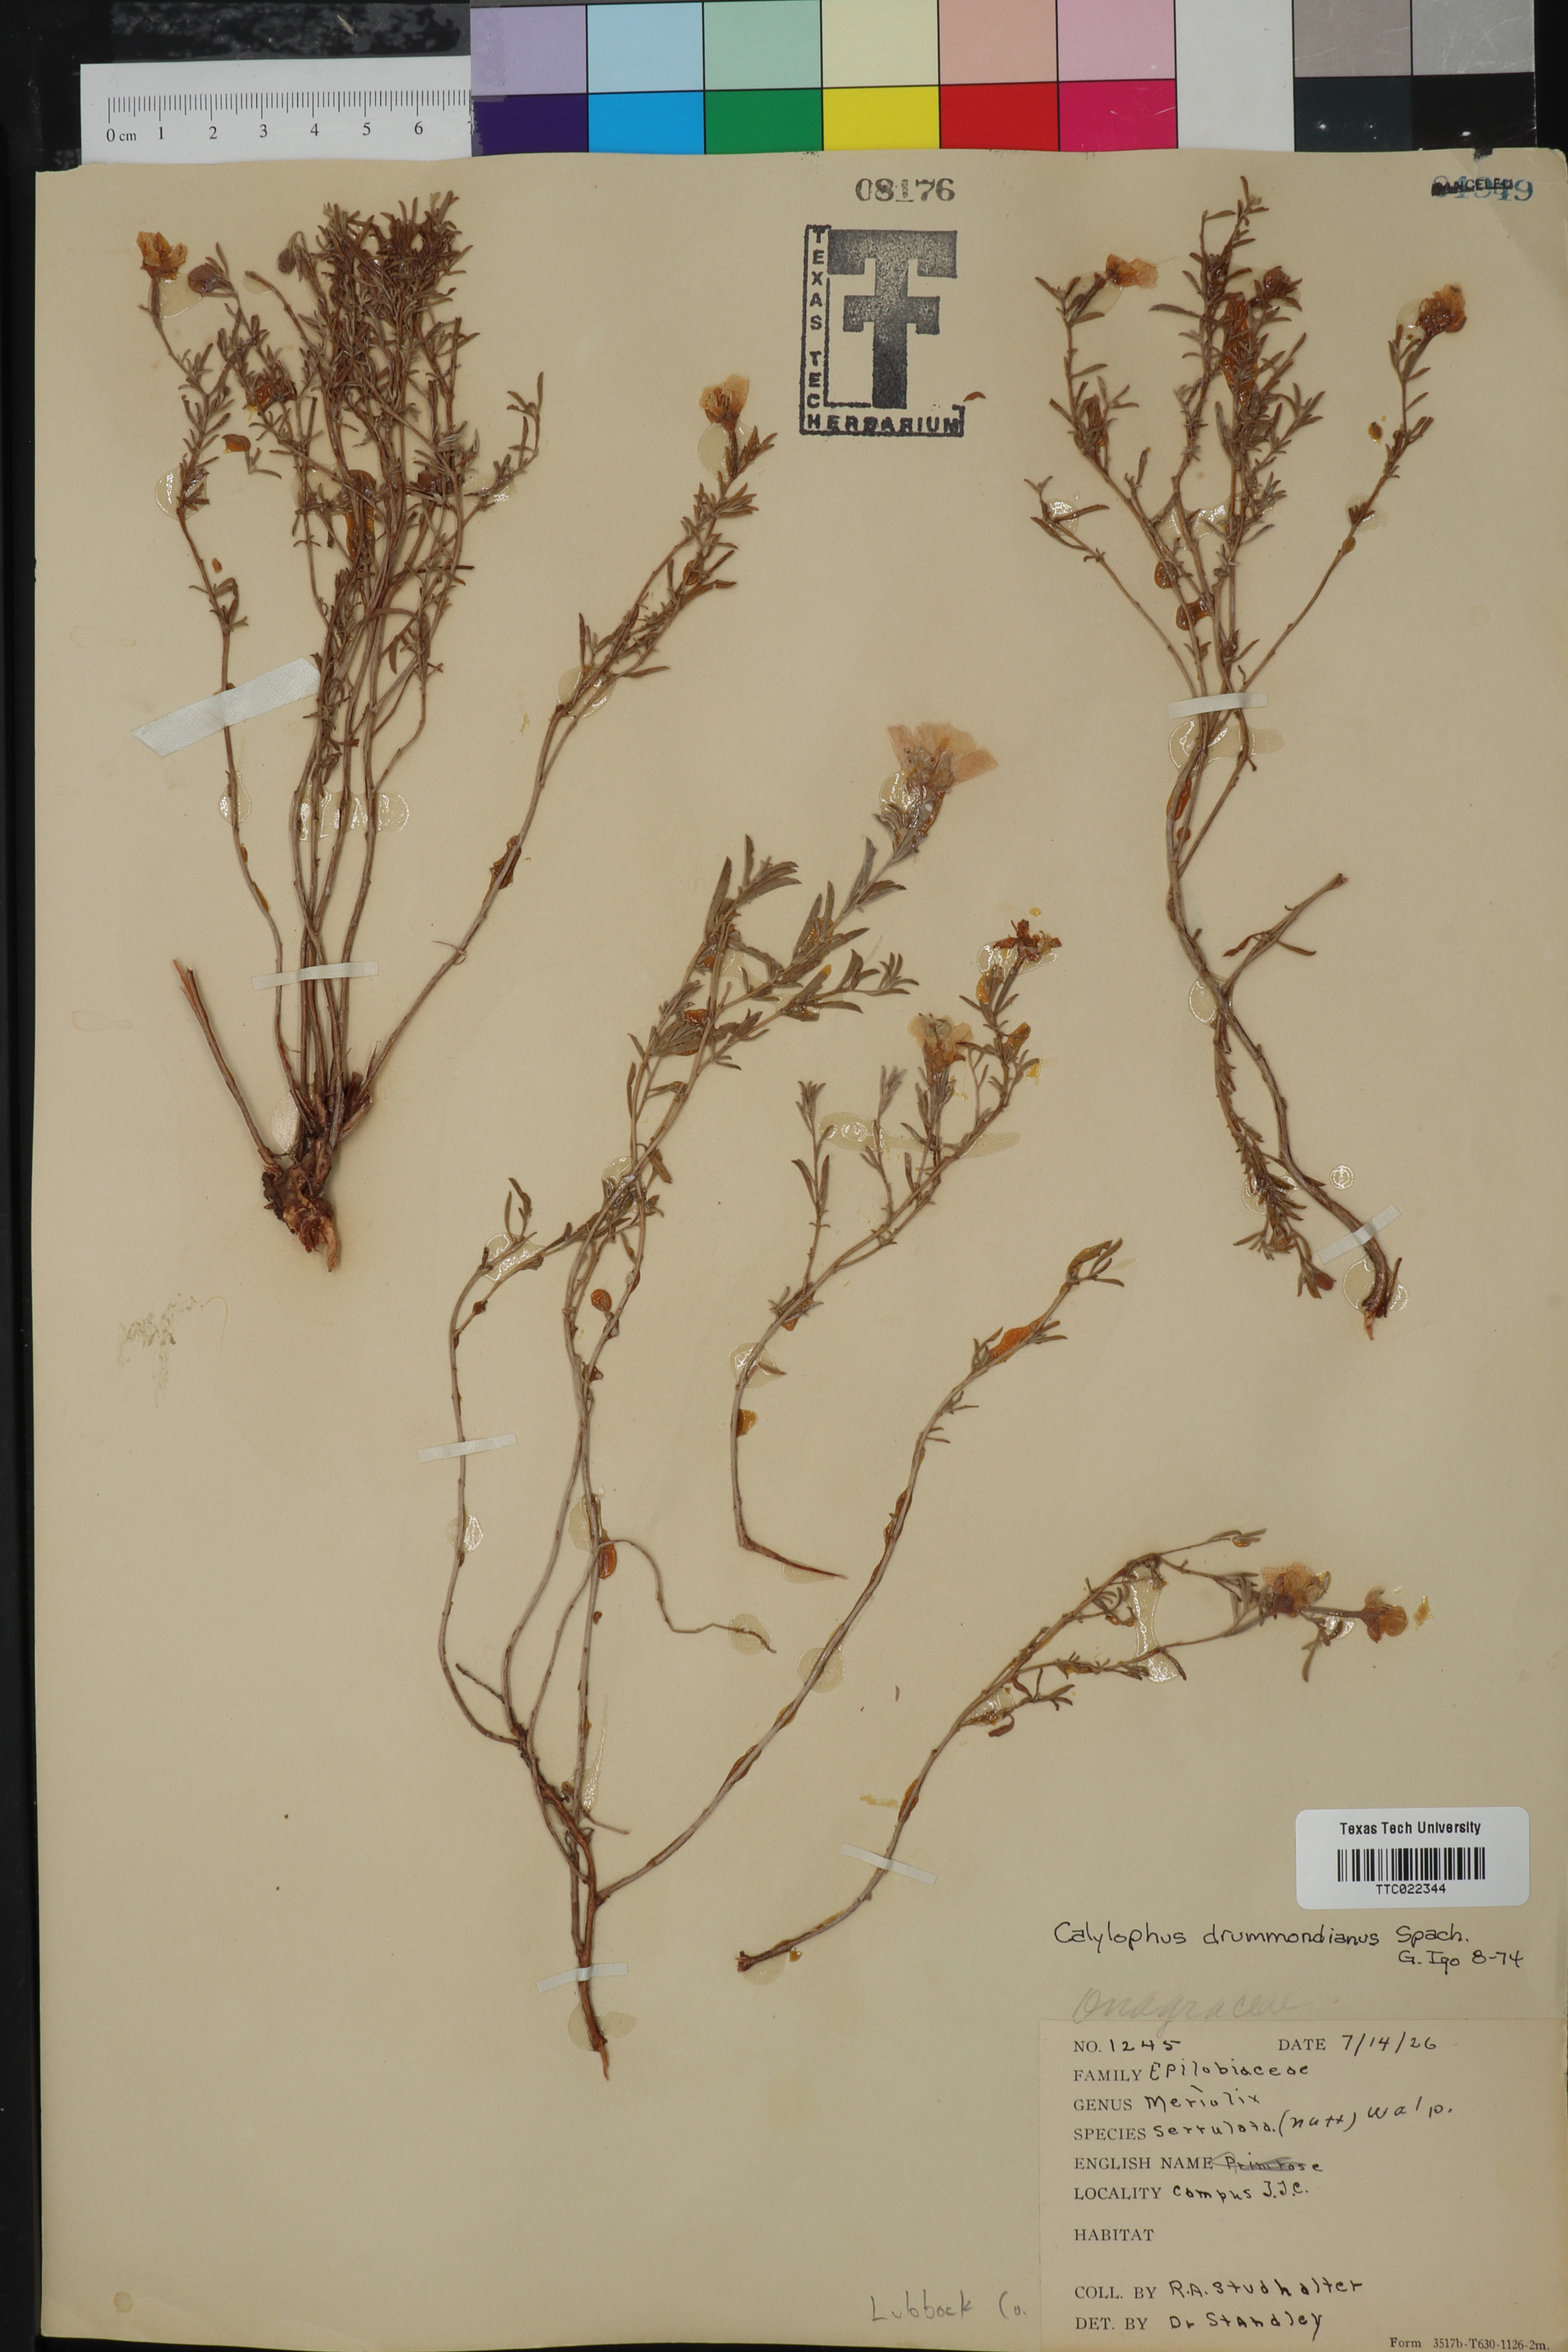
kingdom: Plantae
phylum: Tracheophyta
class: Magnoliopsida
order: Myrtales
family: Onagraceae
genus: Oenothera
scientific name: Oenothera serrulata
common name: Half-shrub calylophus
